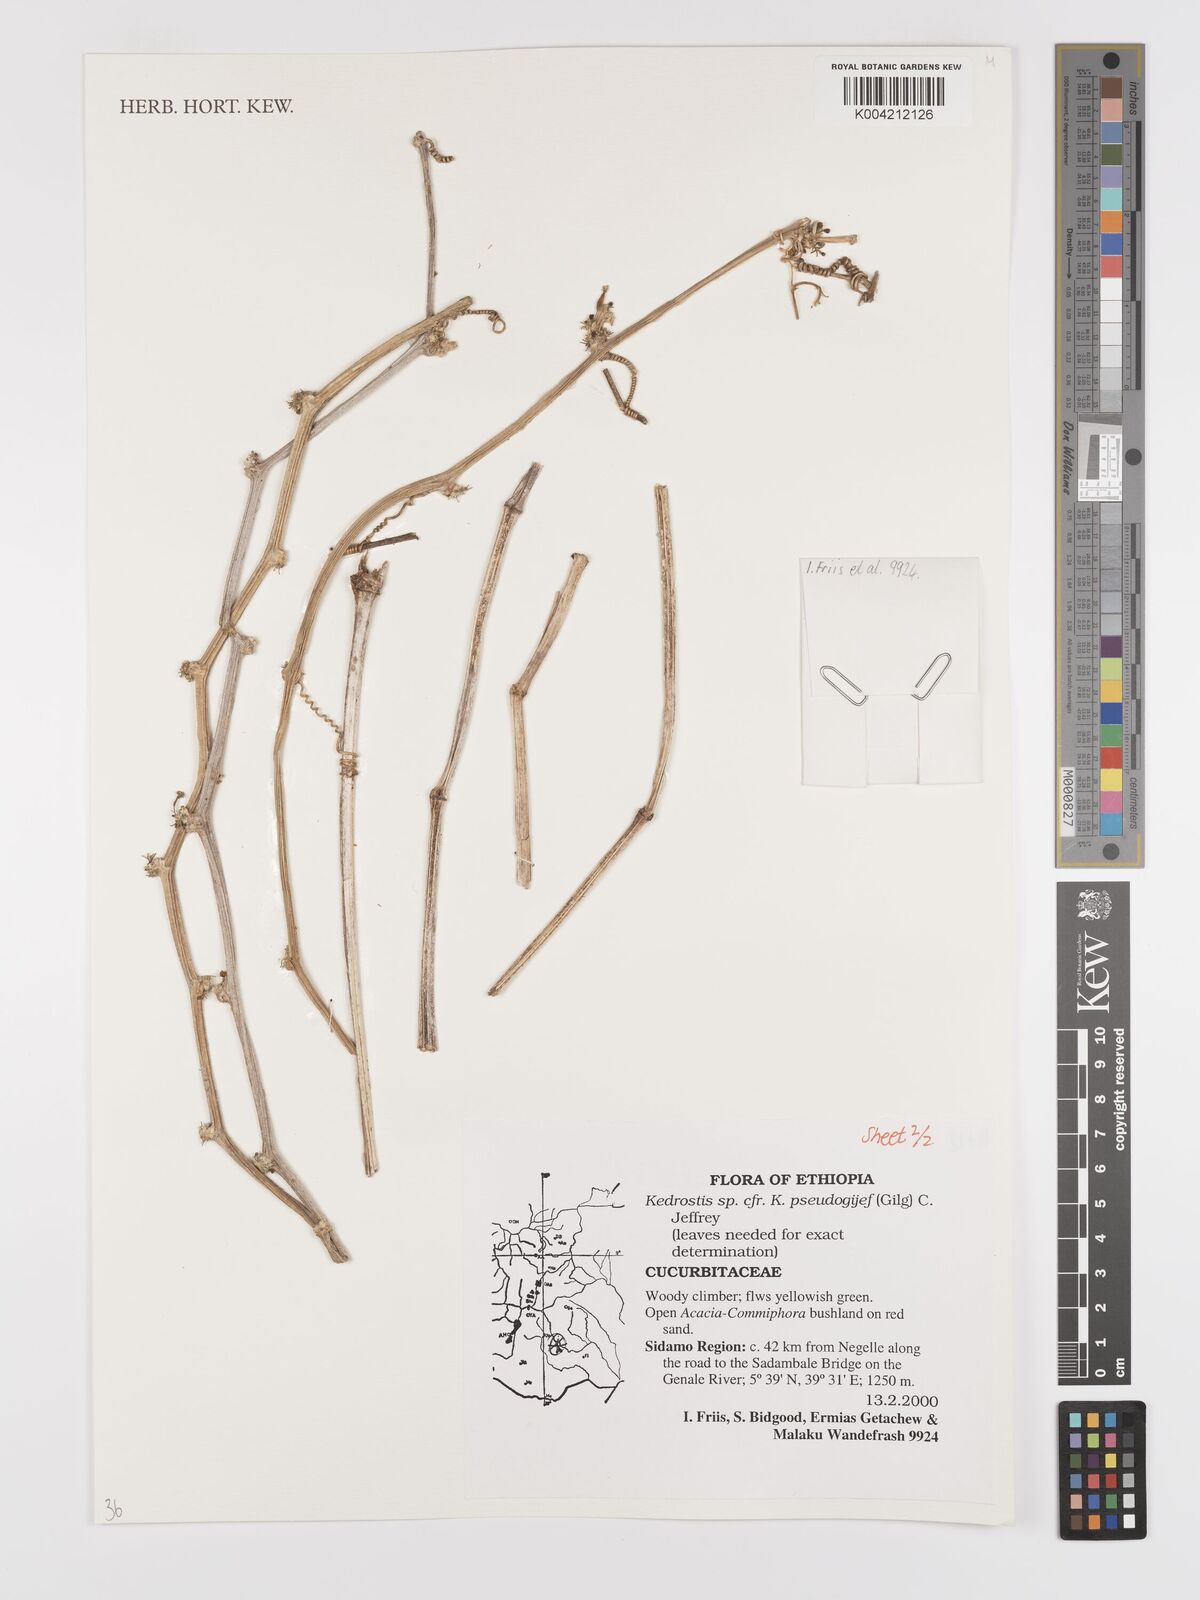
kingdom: Plantae
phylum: Tracheophyta
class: Magnoliopsida
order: Cucurbitales
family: Cucurbitaceae
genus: Kedrostis
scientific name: Kedrostis pseudogijef
